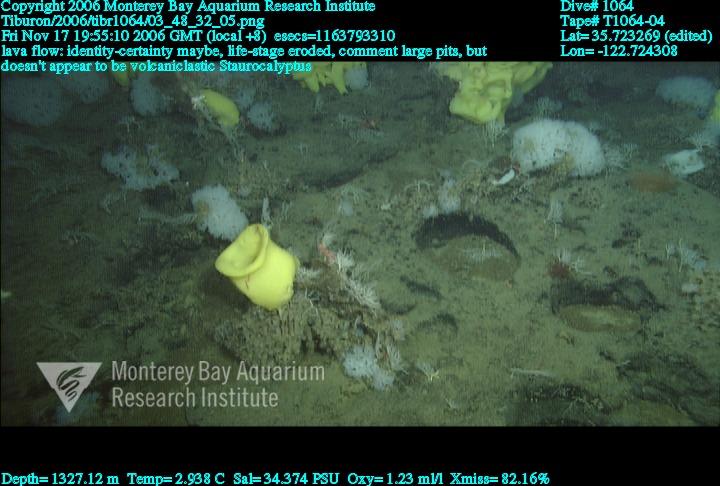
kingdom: Animalia
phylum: Porifera
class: Hexactinellida
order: Lyssacinosida
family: Rossellidae
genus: Staurocalyptus
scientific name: Staurocalyptus
